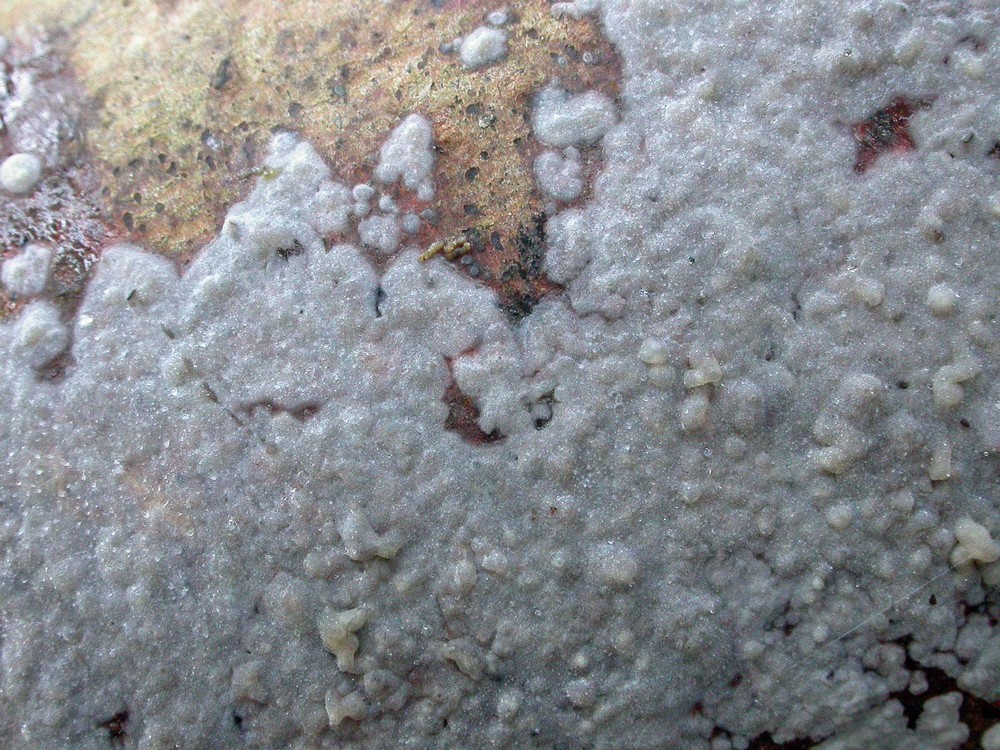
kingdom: Fungi
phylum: Basidiomycota
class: Agaricomycetes
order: Sebacinales
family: Sebacinaceae
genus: Sebacina
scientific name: Sebacina grisea
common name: blågrå bævrehinde
